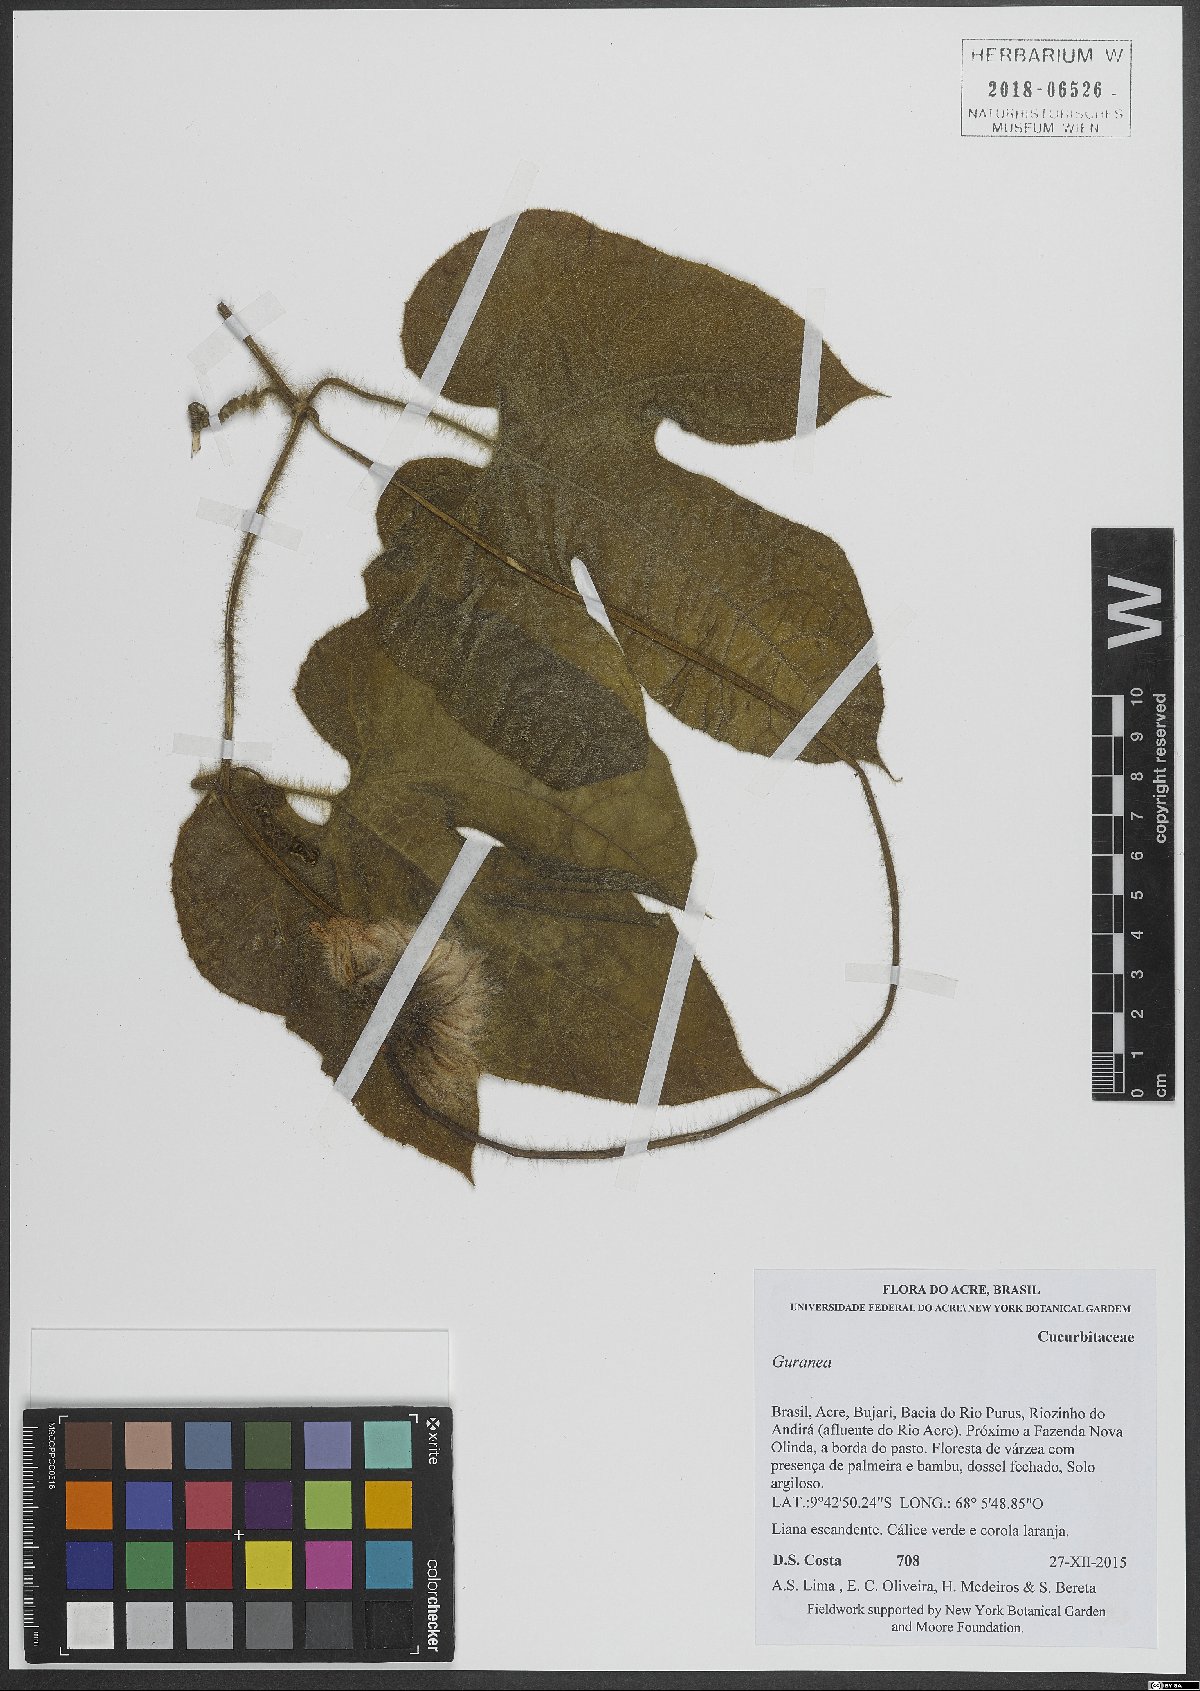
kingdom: Plantae
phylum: Tracheophyta
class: Magnoliopsida
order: Cucurbitales
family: Cucurbitaceae
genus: Gurania
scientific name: Gurania
